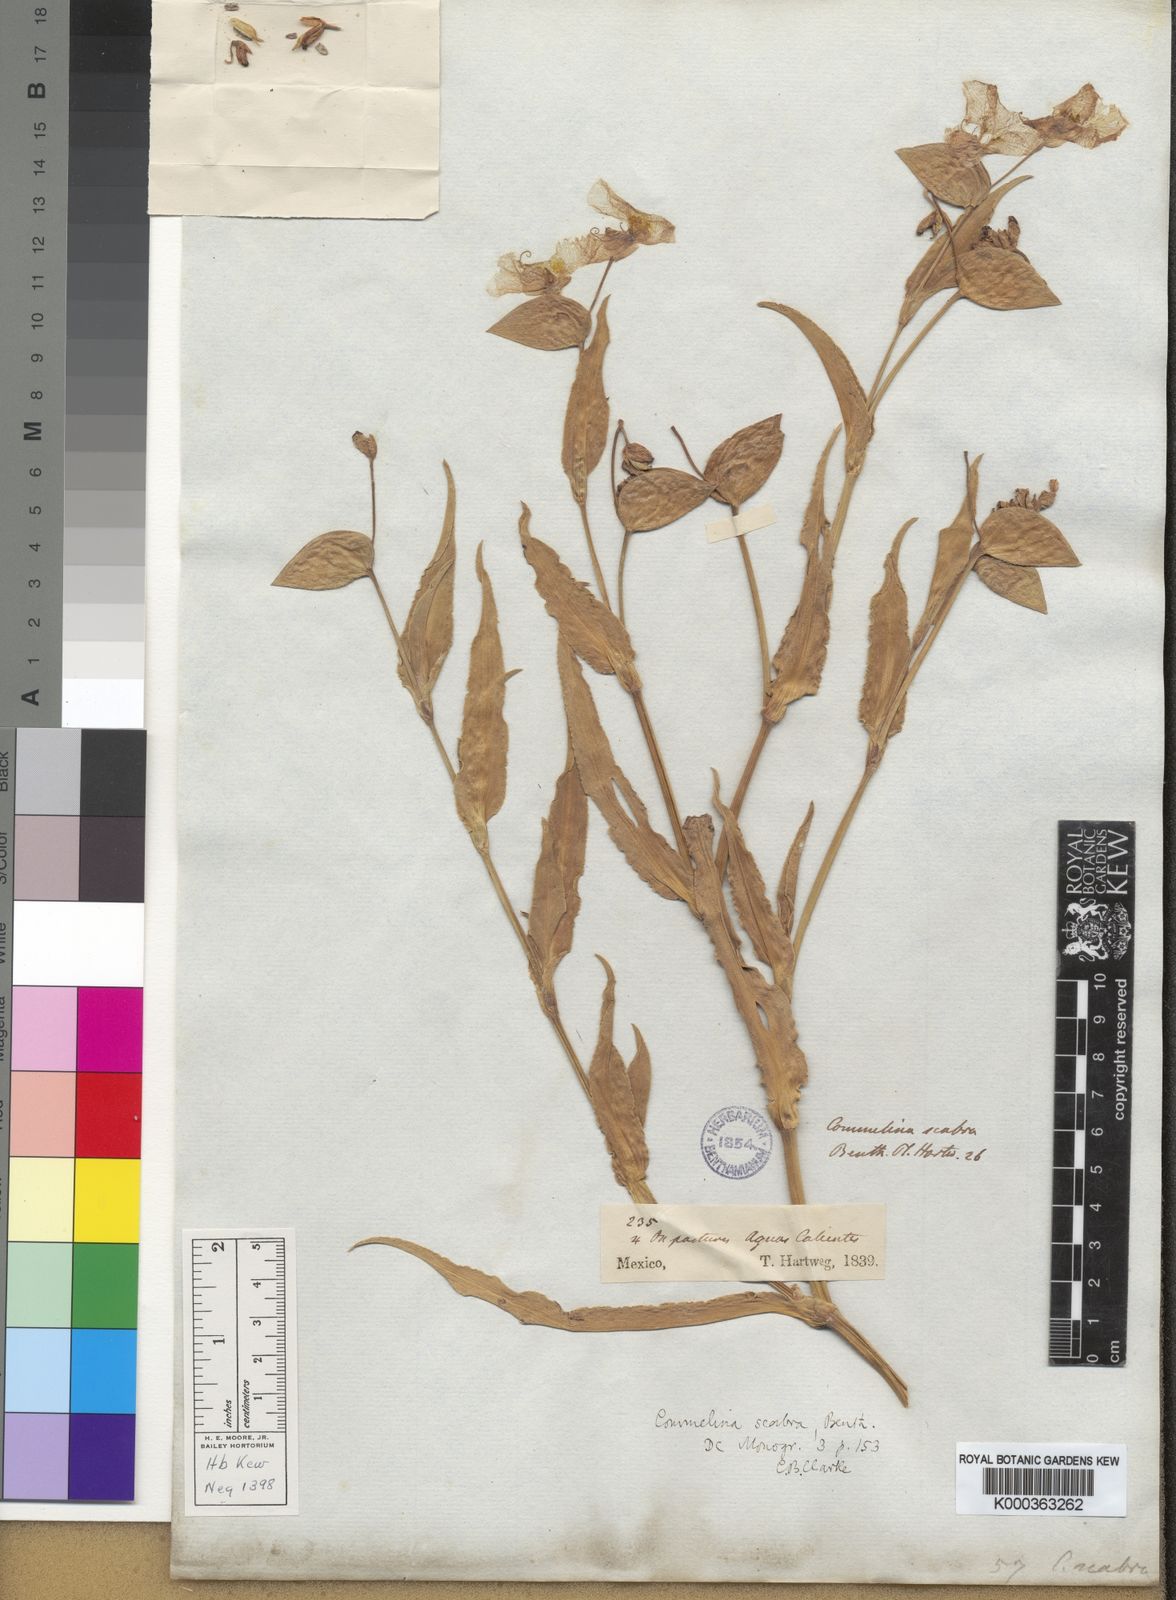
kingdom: Plantae
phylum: Tracheophyta
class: Liliopsida
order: Commelinales
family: Commelinaceae
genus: Commelina
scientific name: Commelina scabra
